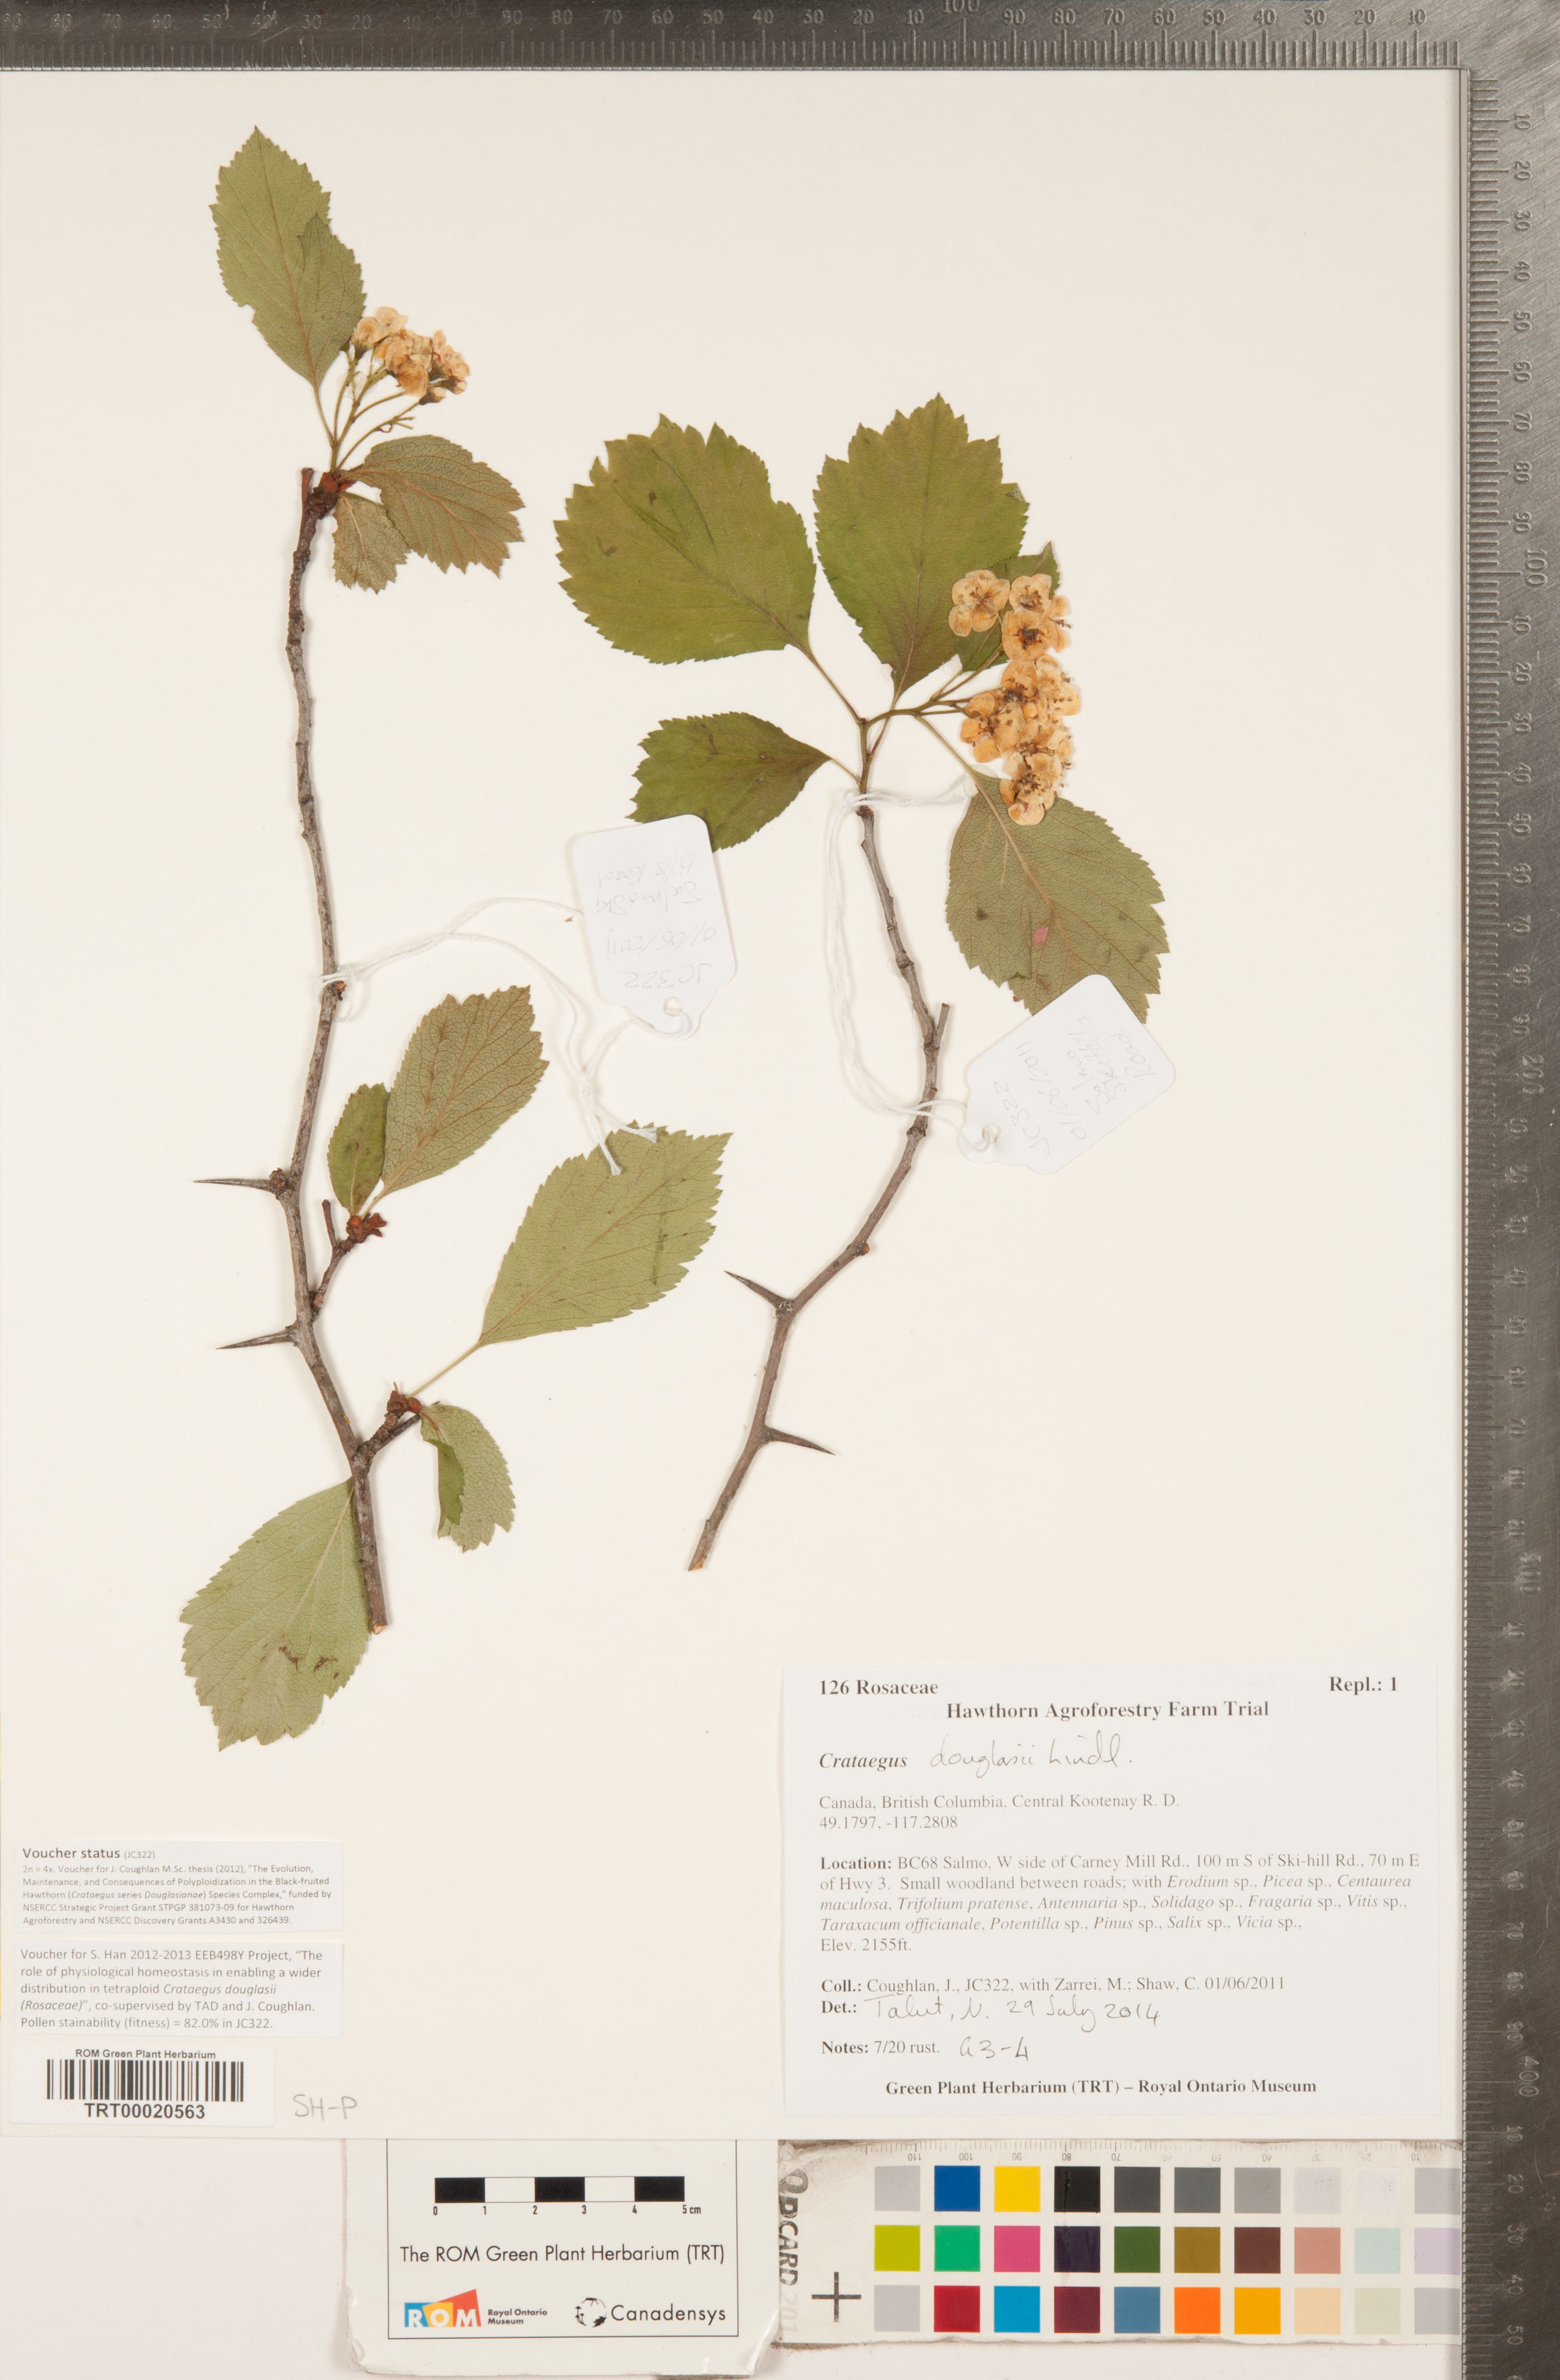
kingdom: Plantae
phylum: Tracheophyta
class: Magnoliopsida
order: Rosales
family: Rosaceae
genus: Crataegus
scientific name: Crataegus douglasii
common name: Black hawthorn
